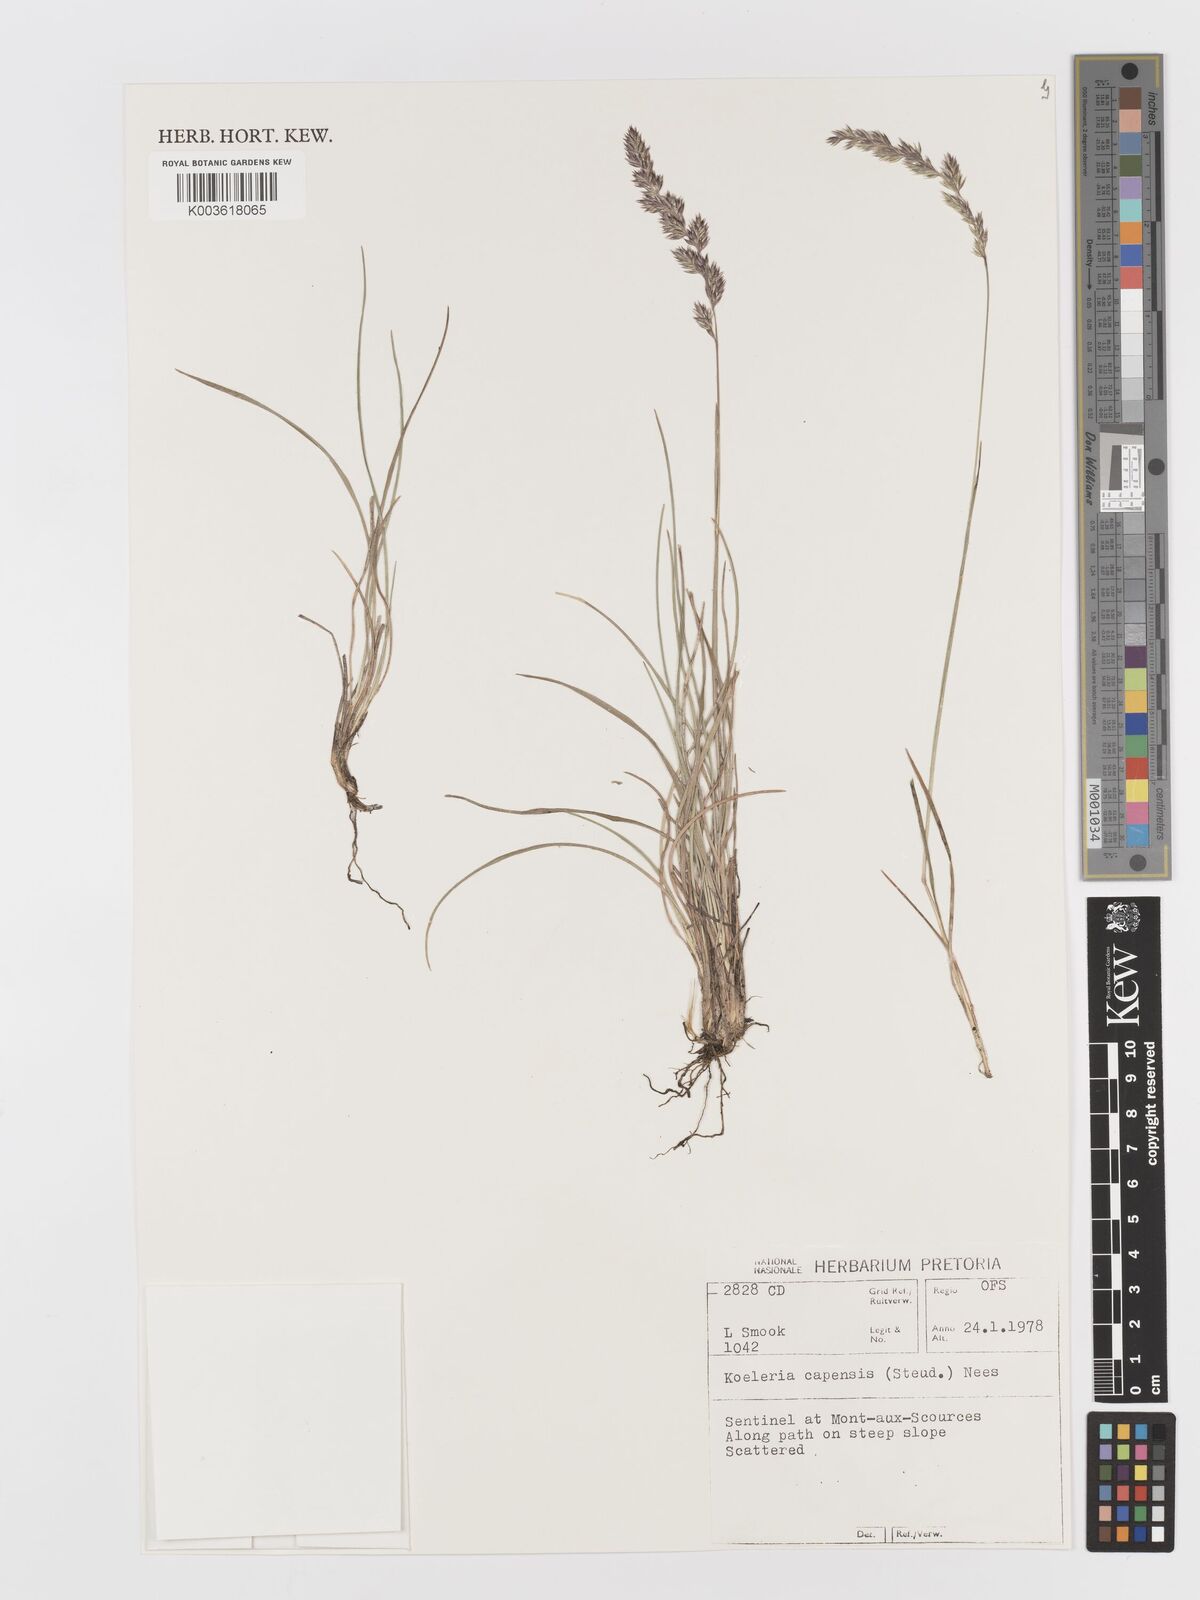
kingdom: Plantae
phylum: Tracheophyta
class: Liliopsida
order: Poales
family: Poaceae
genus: Koeleria
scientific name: Koeleria capensis
